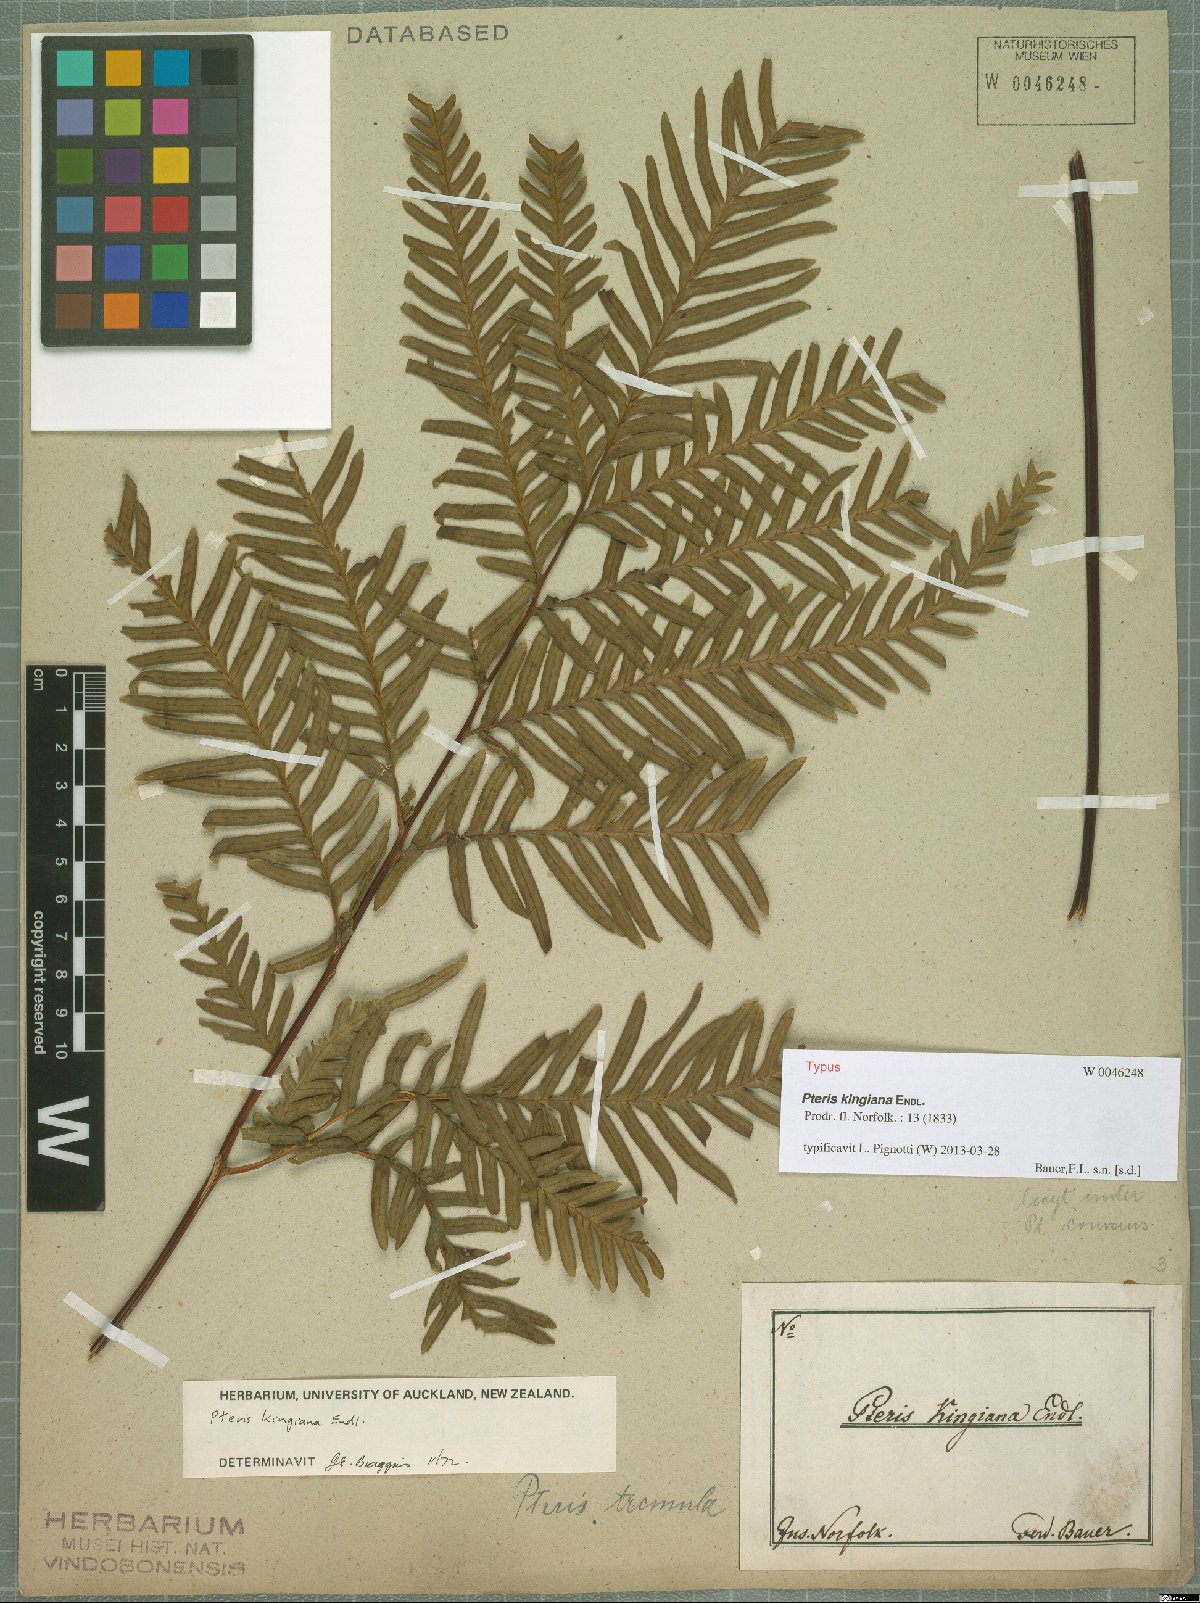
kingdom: Plantae
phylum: Tracheophyta
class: Polypodiopsida
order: Polypodiales
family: Pteridaceae
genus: Pteris
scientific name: Pteris kingiana
